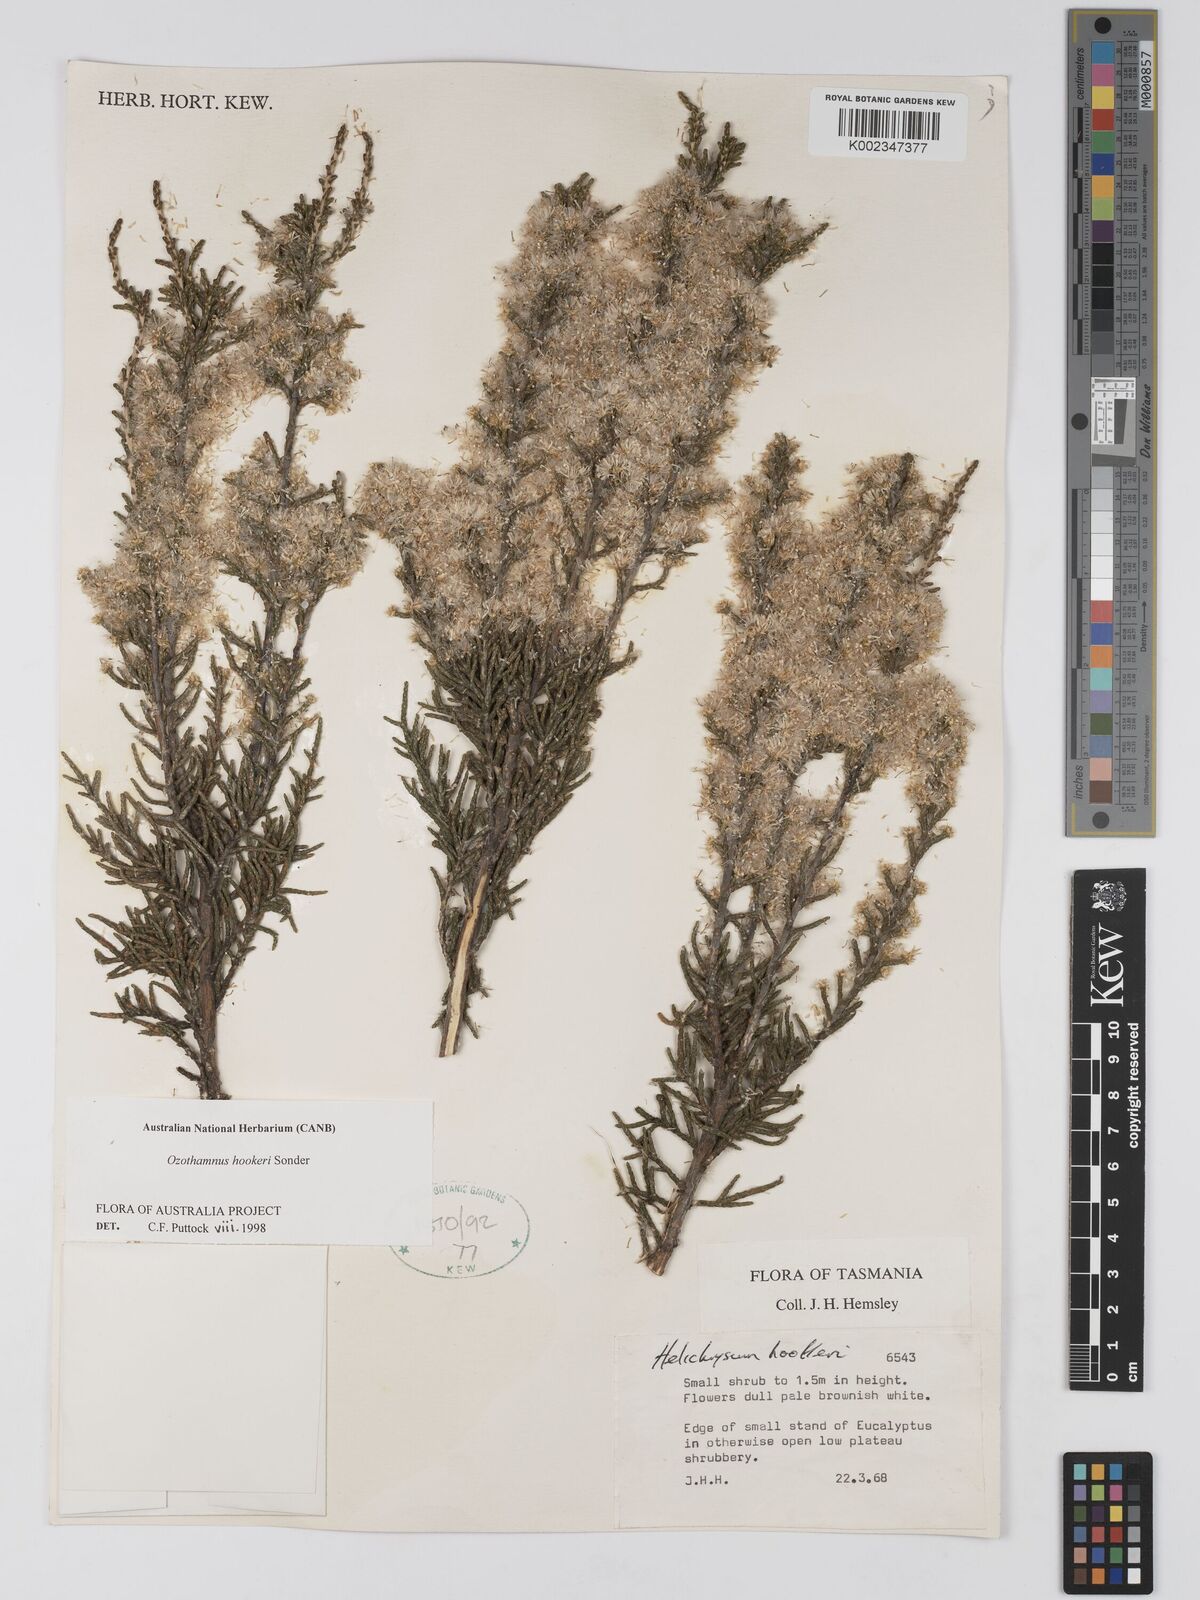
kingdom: Plantae
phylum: Tracheophyta
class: Magnoliopsida
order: Asterales
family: Asteraceae
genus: Ozothamnus
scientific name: Ozothamnus hookeri
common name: Kerosene-bush
